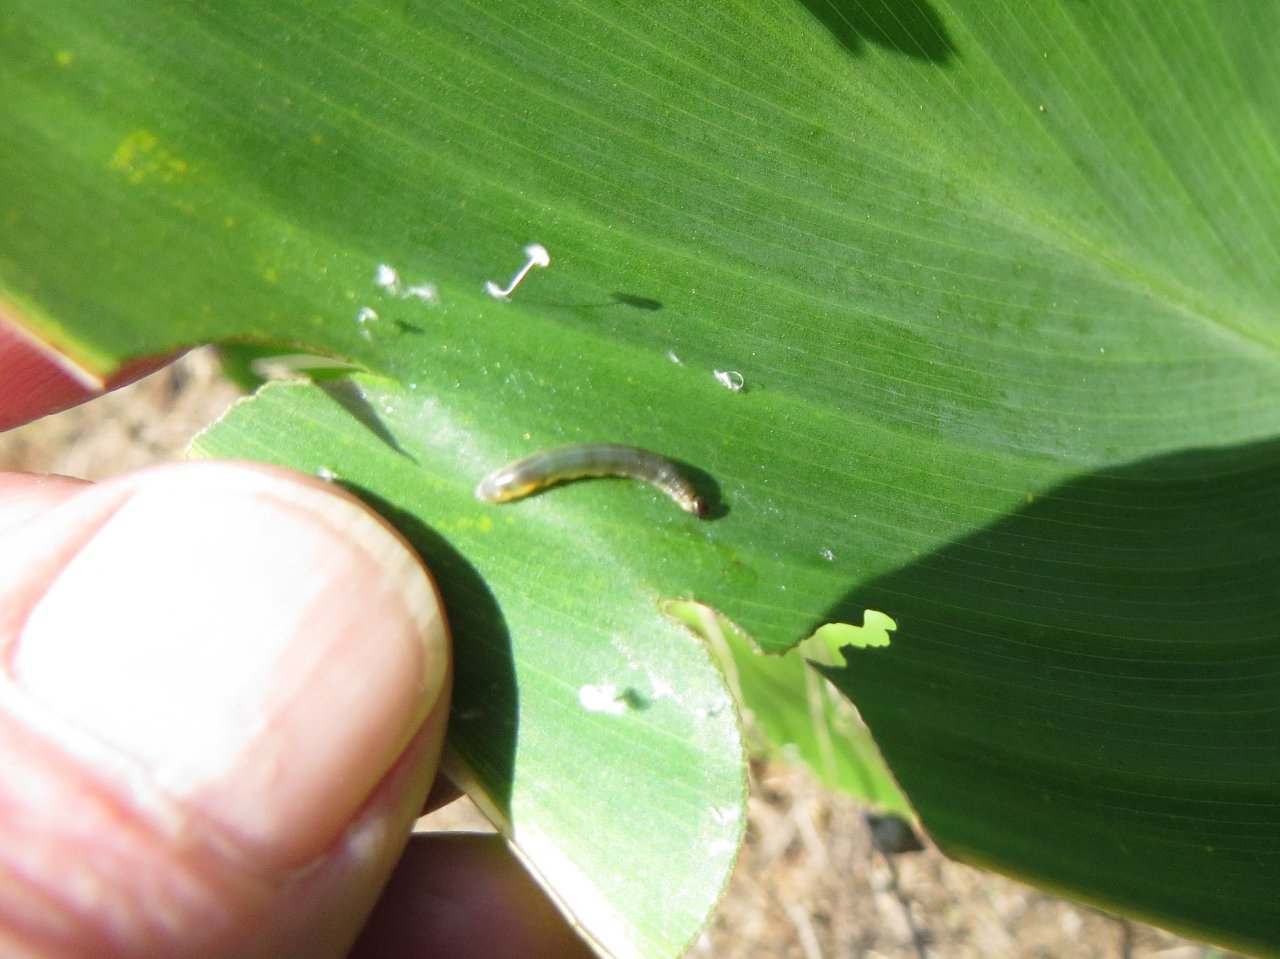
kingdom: Animalia
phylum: Arthropoda
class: Insecta
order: Lepidoptera
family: Hesperiidae
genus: Calpodes
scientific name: Calpodes ethlius
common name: Brazilian Skipper
